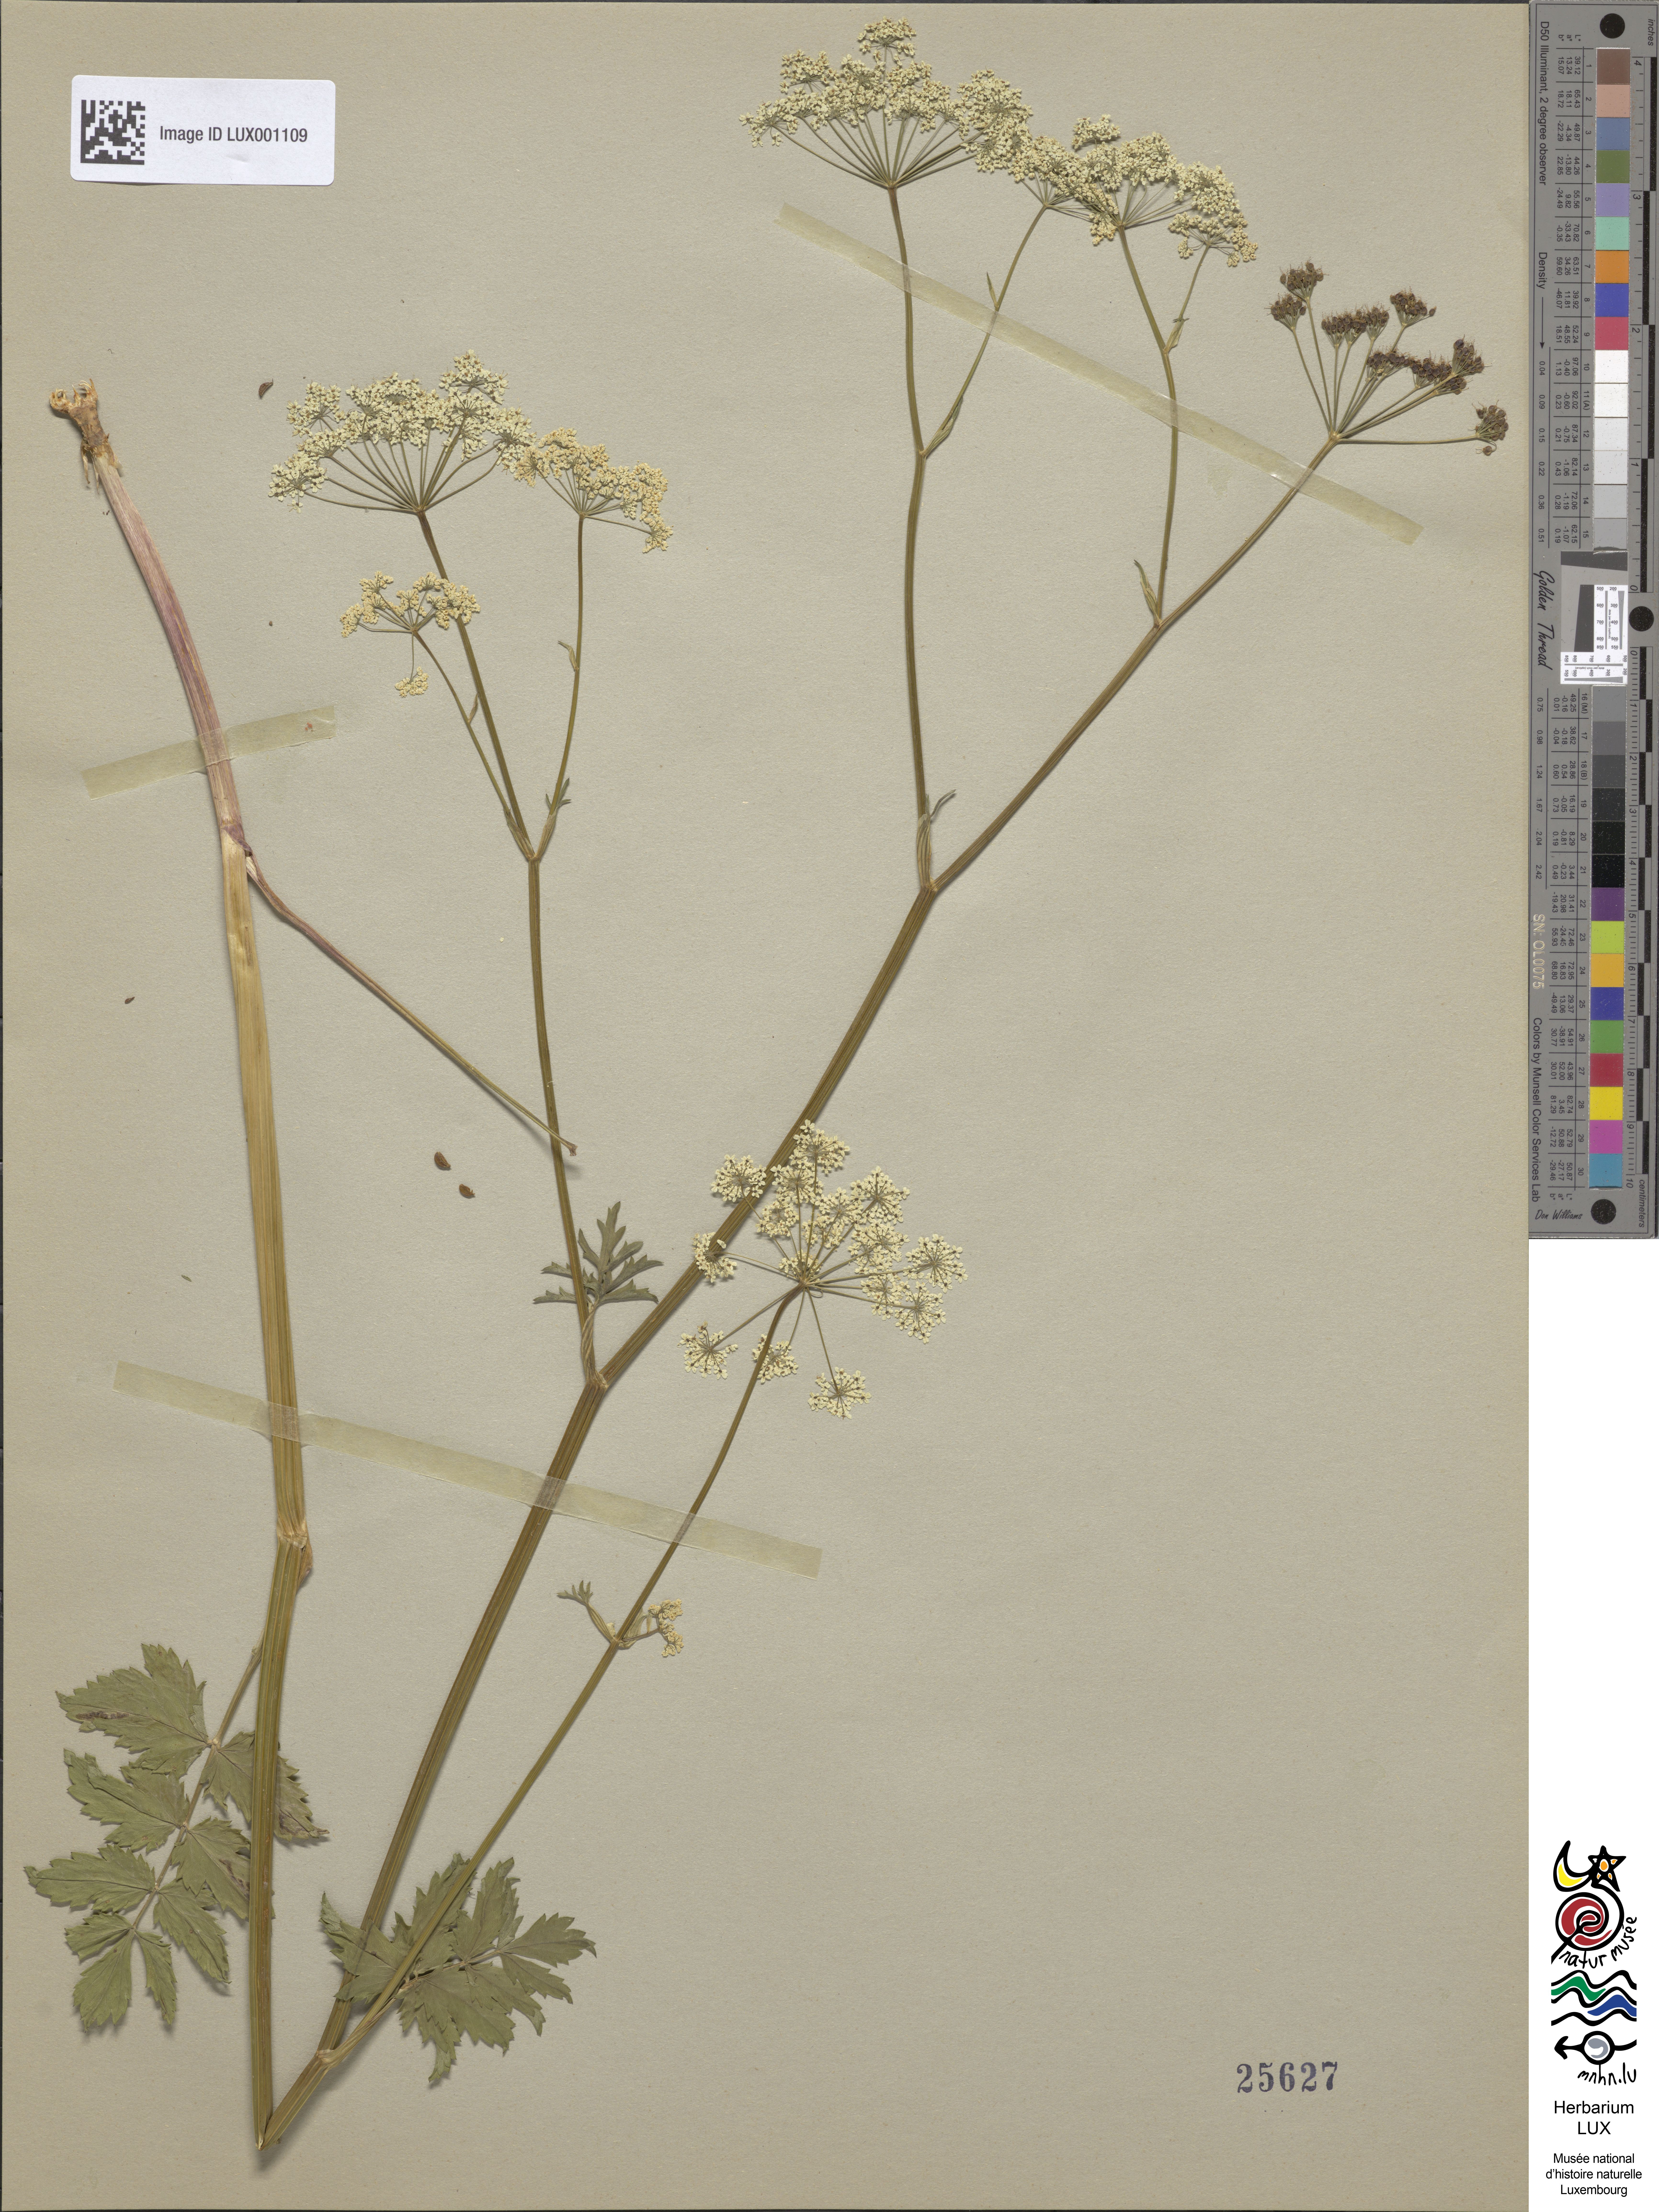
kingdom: Plantae
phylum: Tracheophyta
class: Magnoliopsida
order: Apiales
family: Apiaceae
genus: Pimpinella
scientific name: Pimpinella major
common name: Greater burnet-saxifrage
